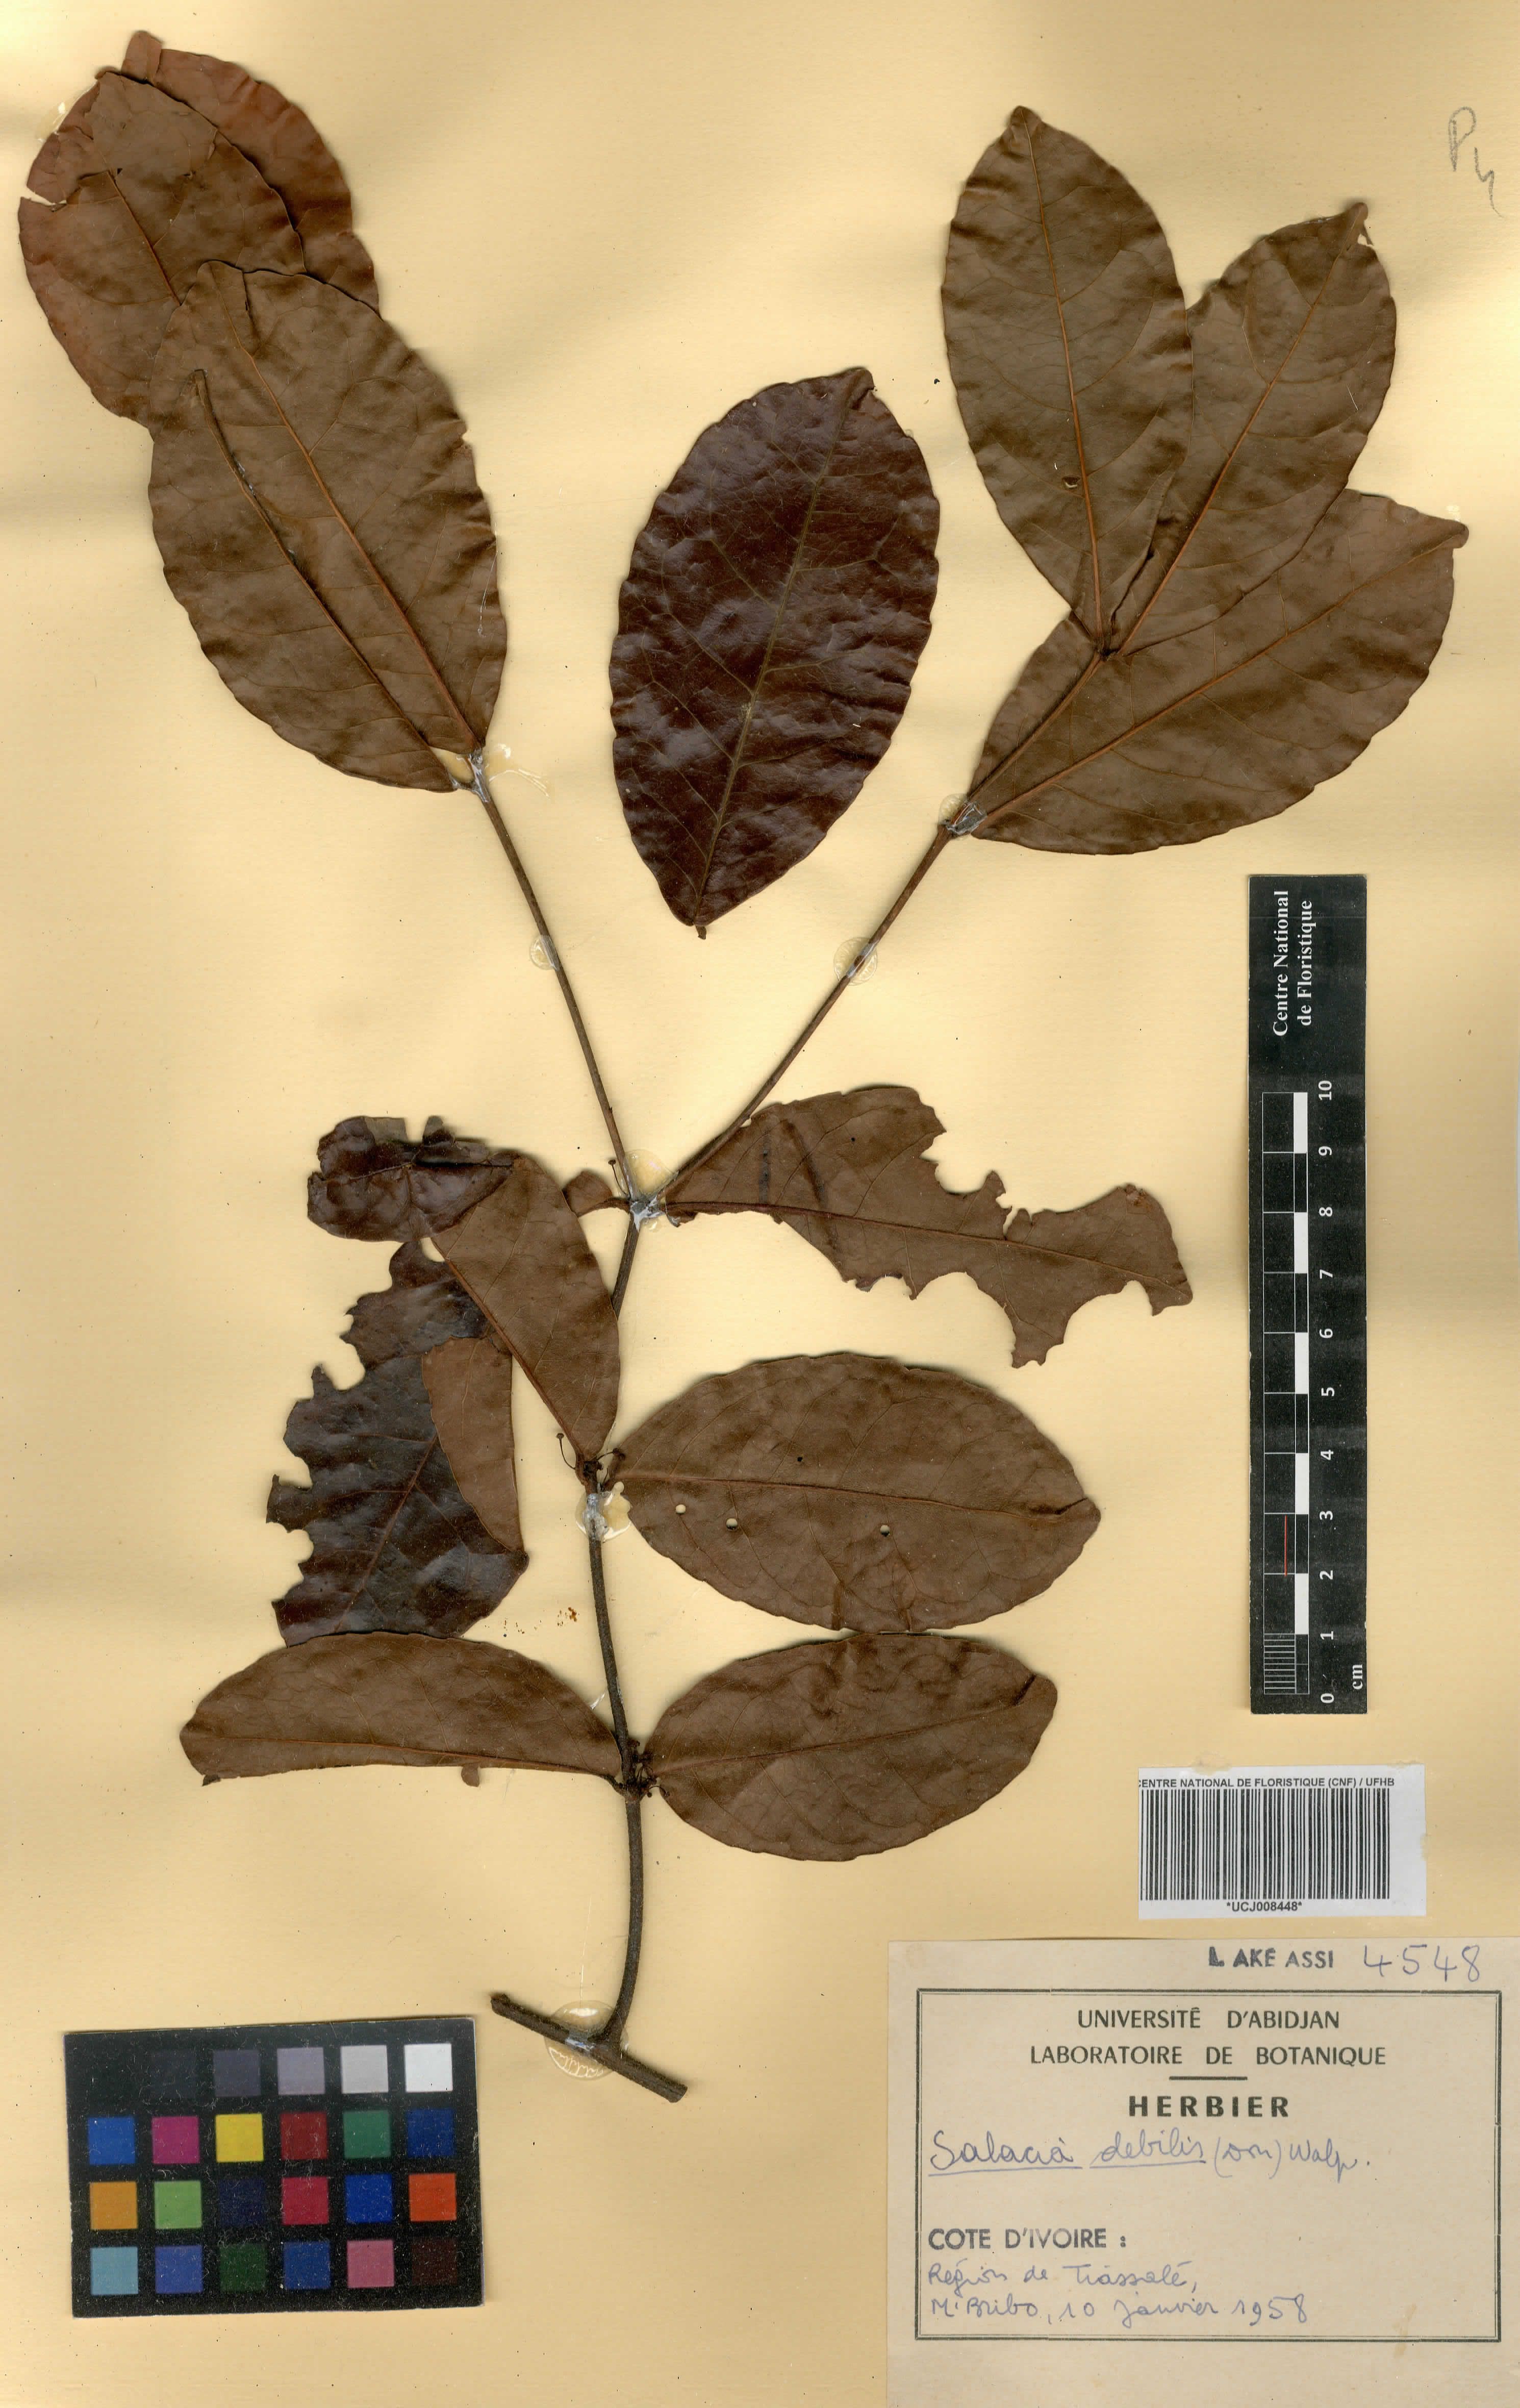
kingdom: Plantae
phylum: Tracheophyta
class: Magnoliopsida
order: Celastrales
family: Celastraceae
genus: Salacia
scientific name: Salacia debilis
